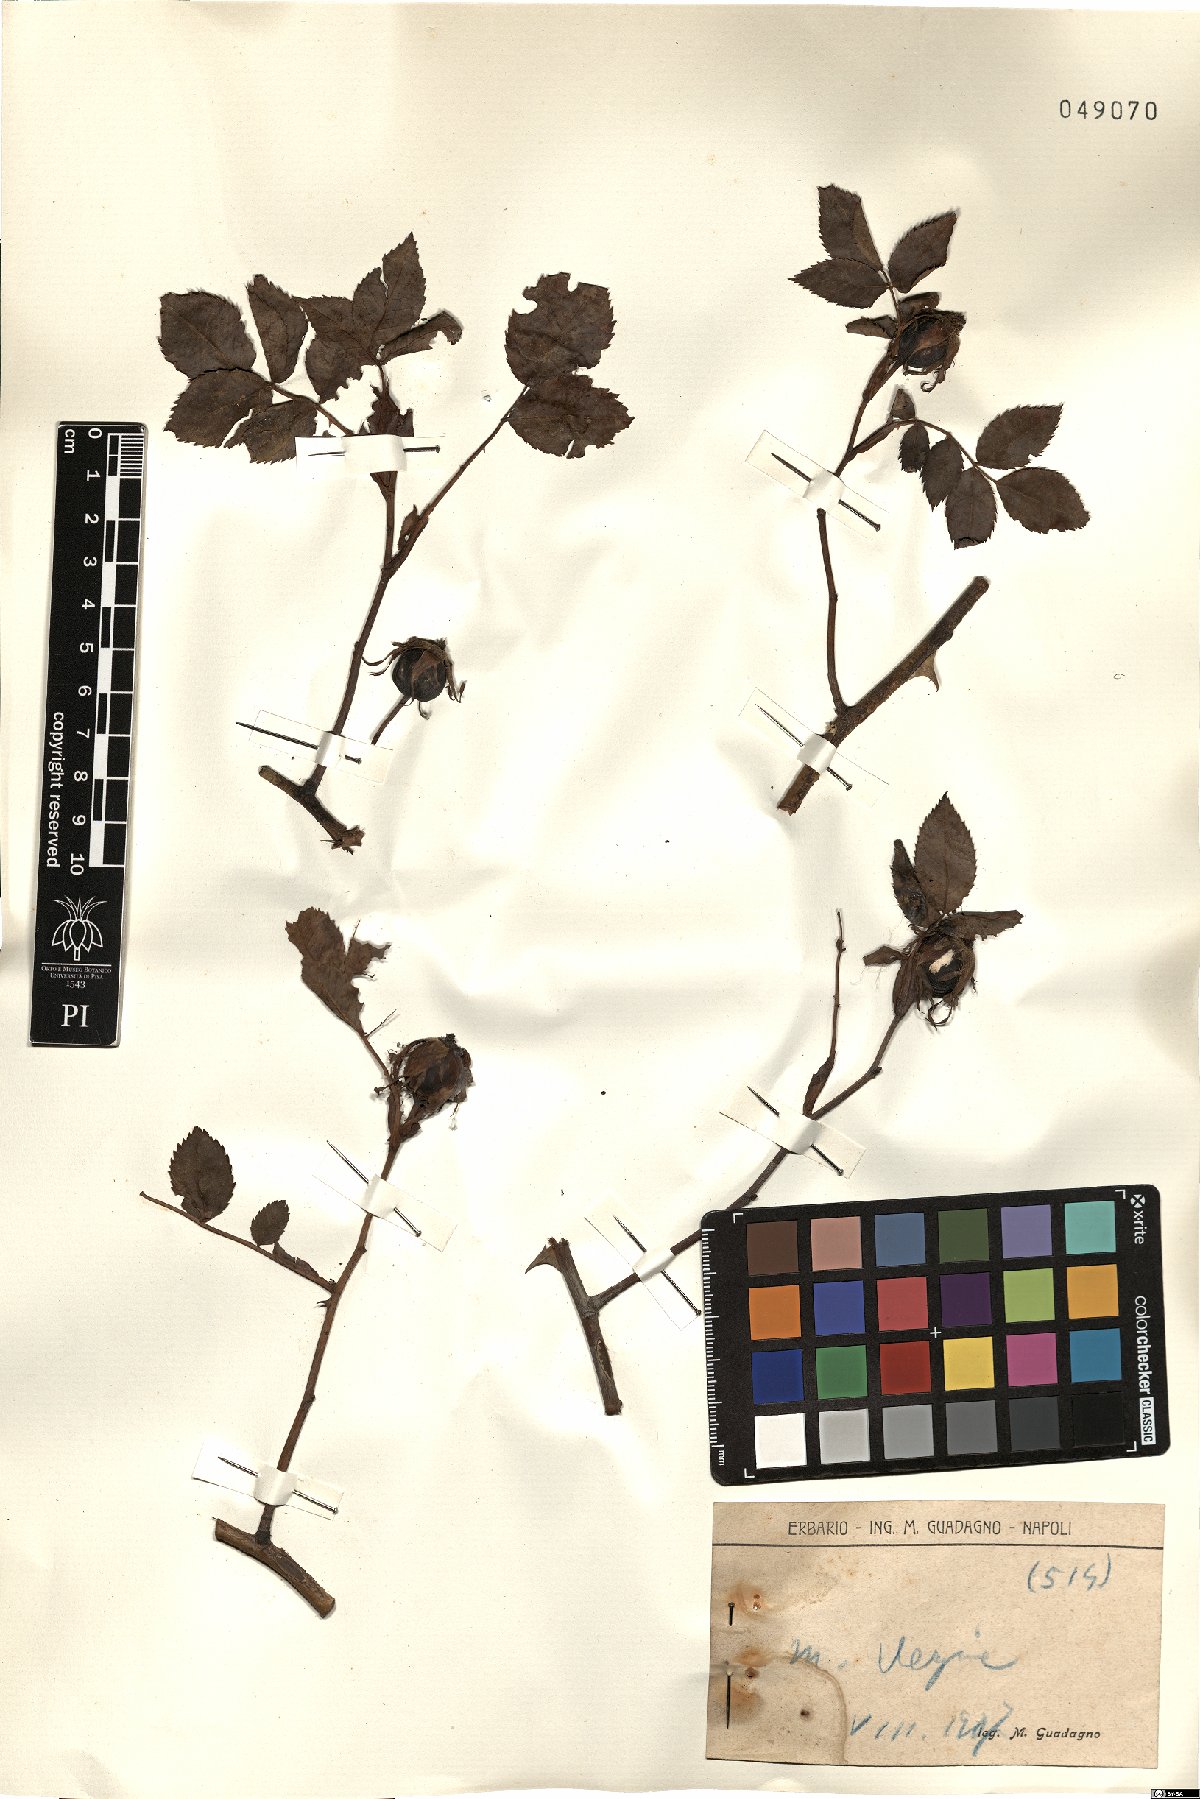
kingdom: Plantae
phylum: Tracheophyta
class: Magnoliopsida
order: Rosales
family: Rosaceae
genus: Rosa
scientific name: Rosa
